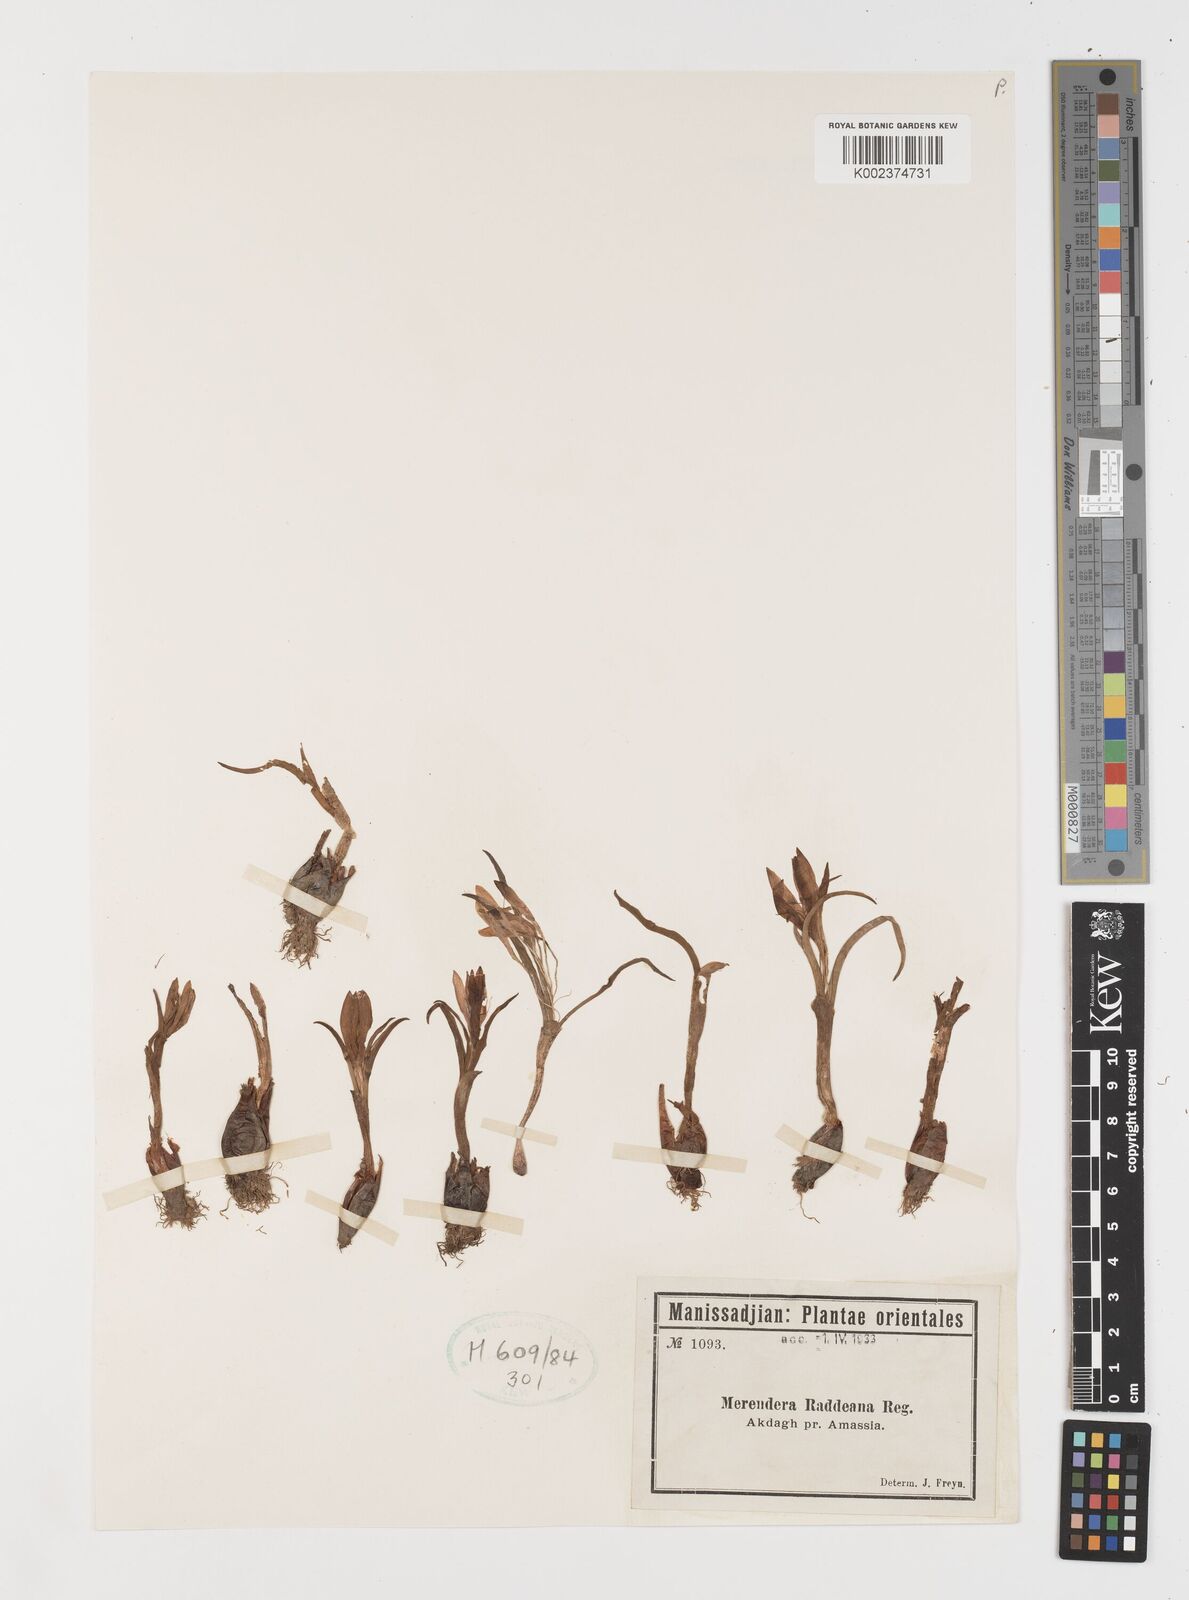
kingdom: Plantae
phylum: Tracheophyta
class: Liliopsida
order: Liliales
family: Colchicaceae
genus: Colchicum
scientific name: Colchicum raddeanum
